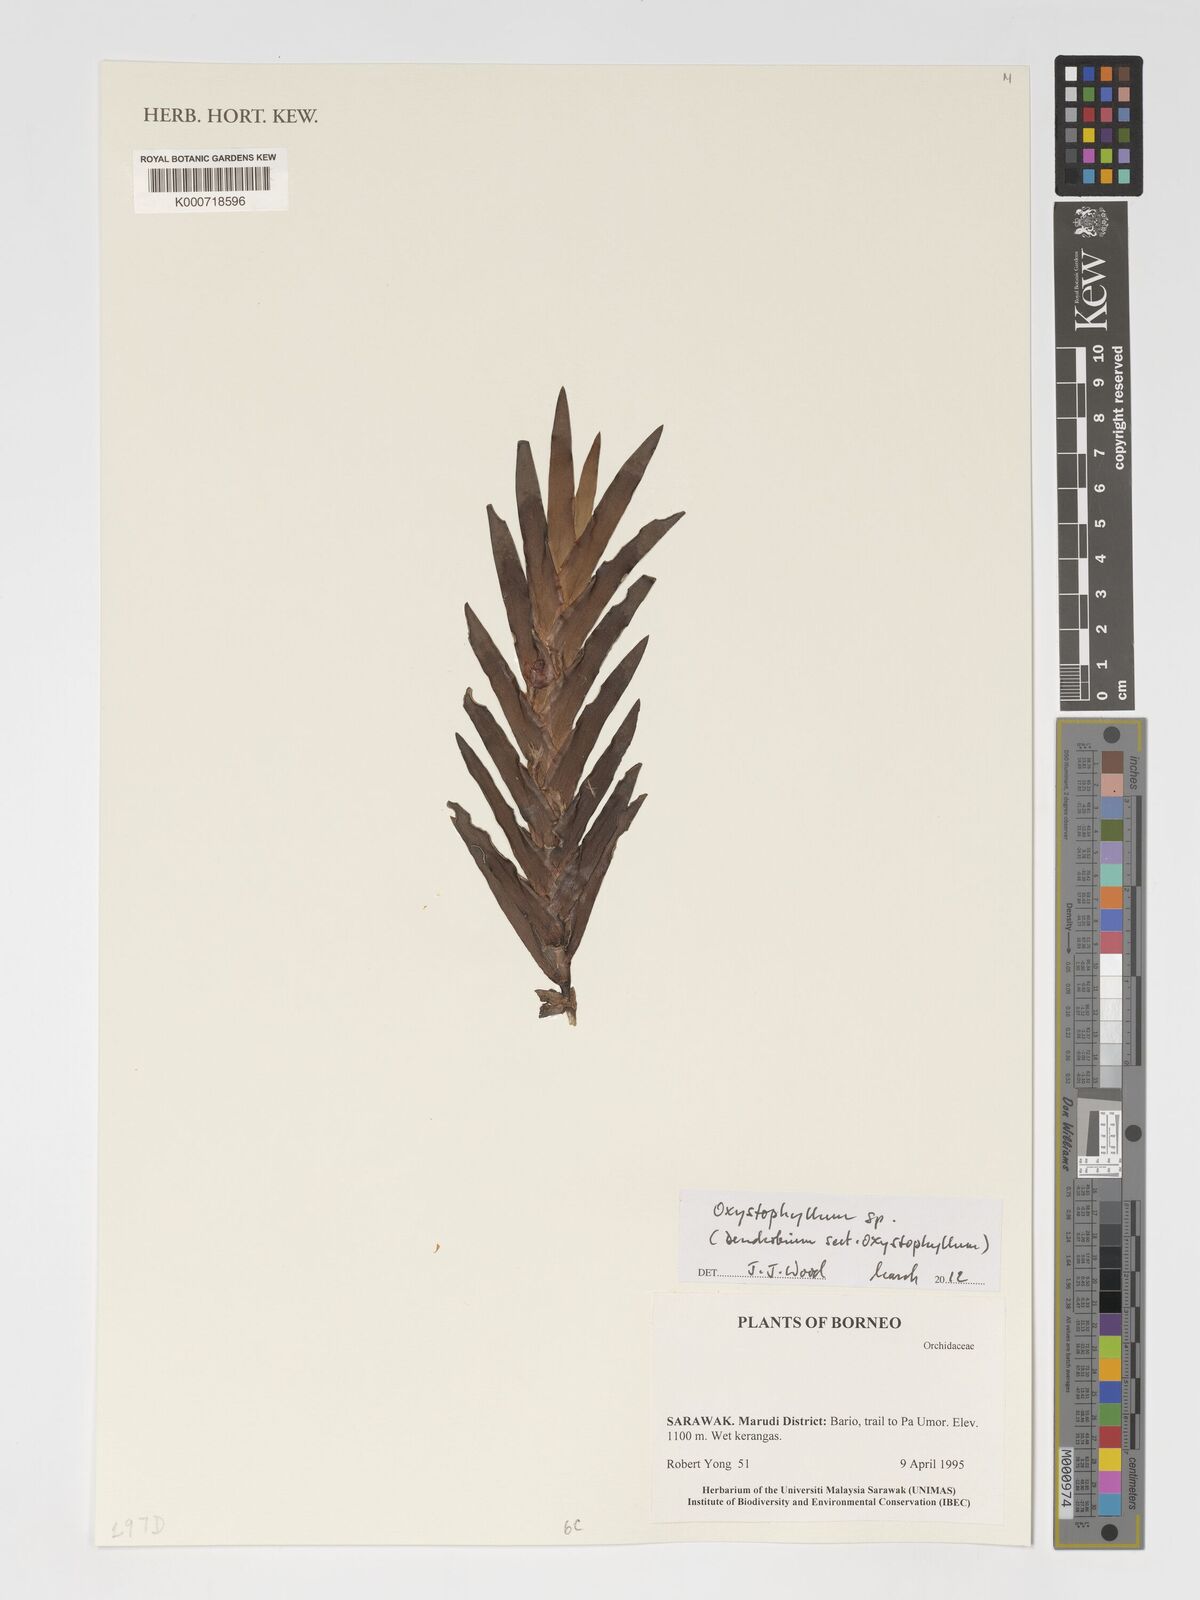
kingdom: Plantae
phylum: Tracheophyta
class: Liliopsida
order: Asparagales
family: Orchidaceae
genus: Oxystophyllum
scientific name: Oxystophyllum
